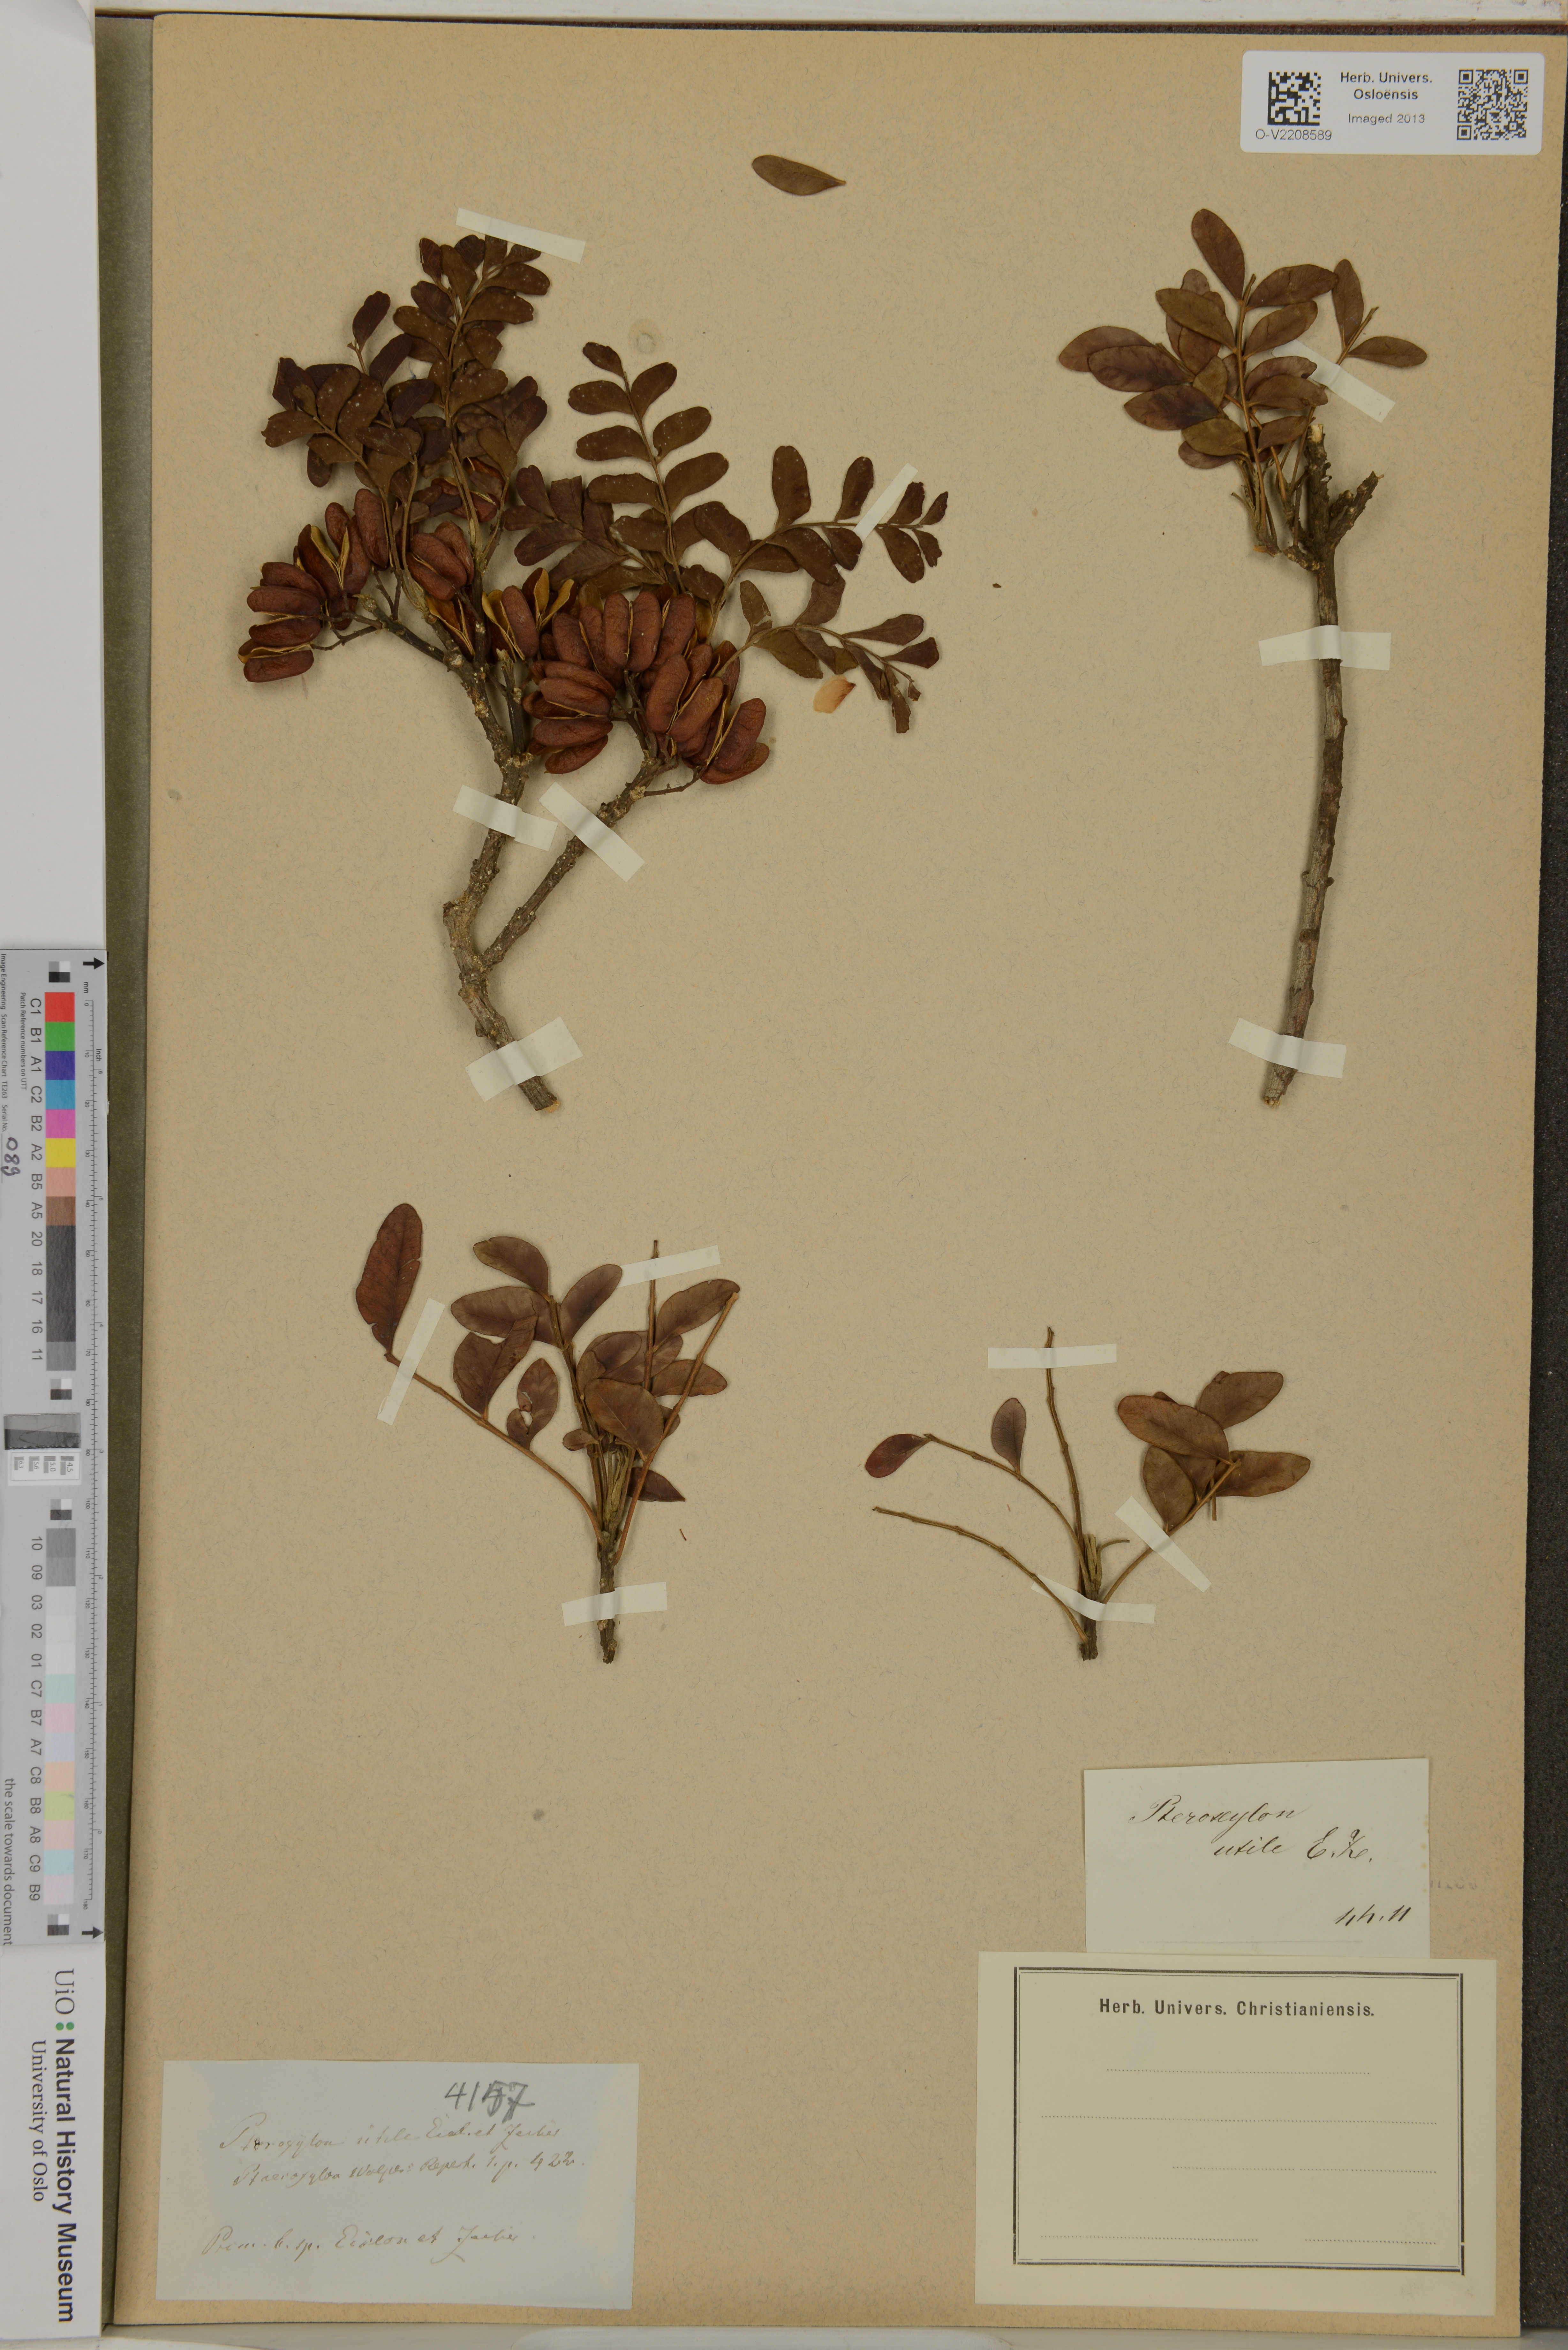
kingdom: Plantae
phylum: Tracheophyta
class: Magnoliopsida
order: Sapindales
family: Rutaceae
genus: Ptaeroxylon
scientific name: Ptaeroxylon obliquum
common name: Sneezewood
